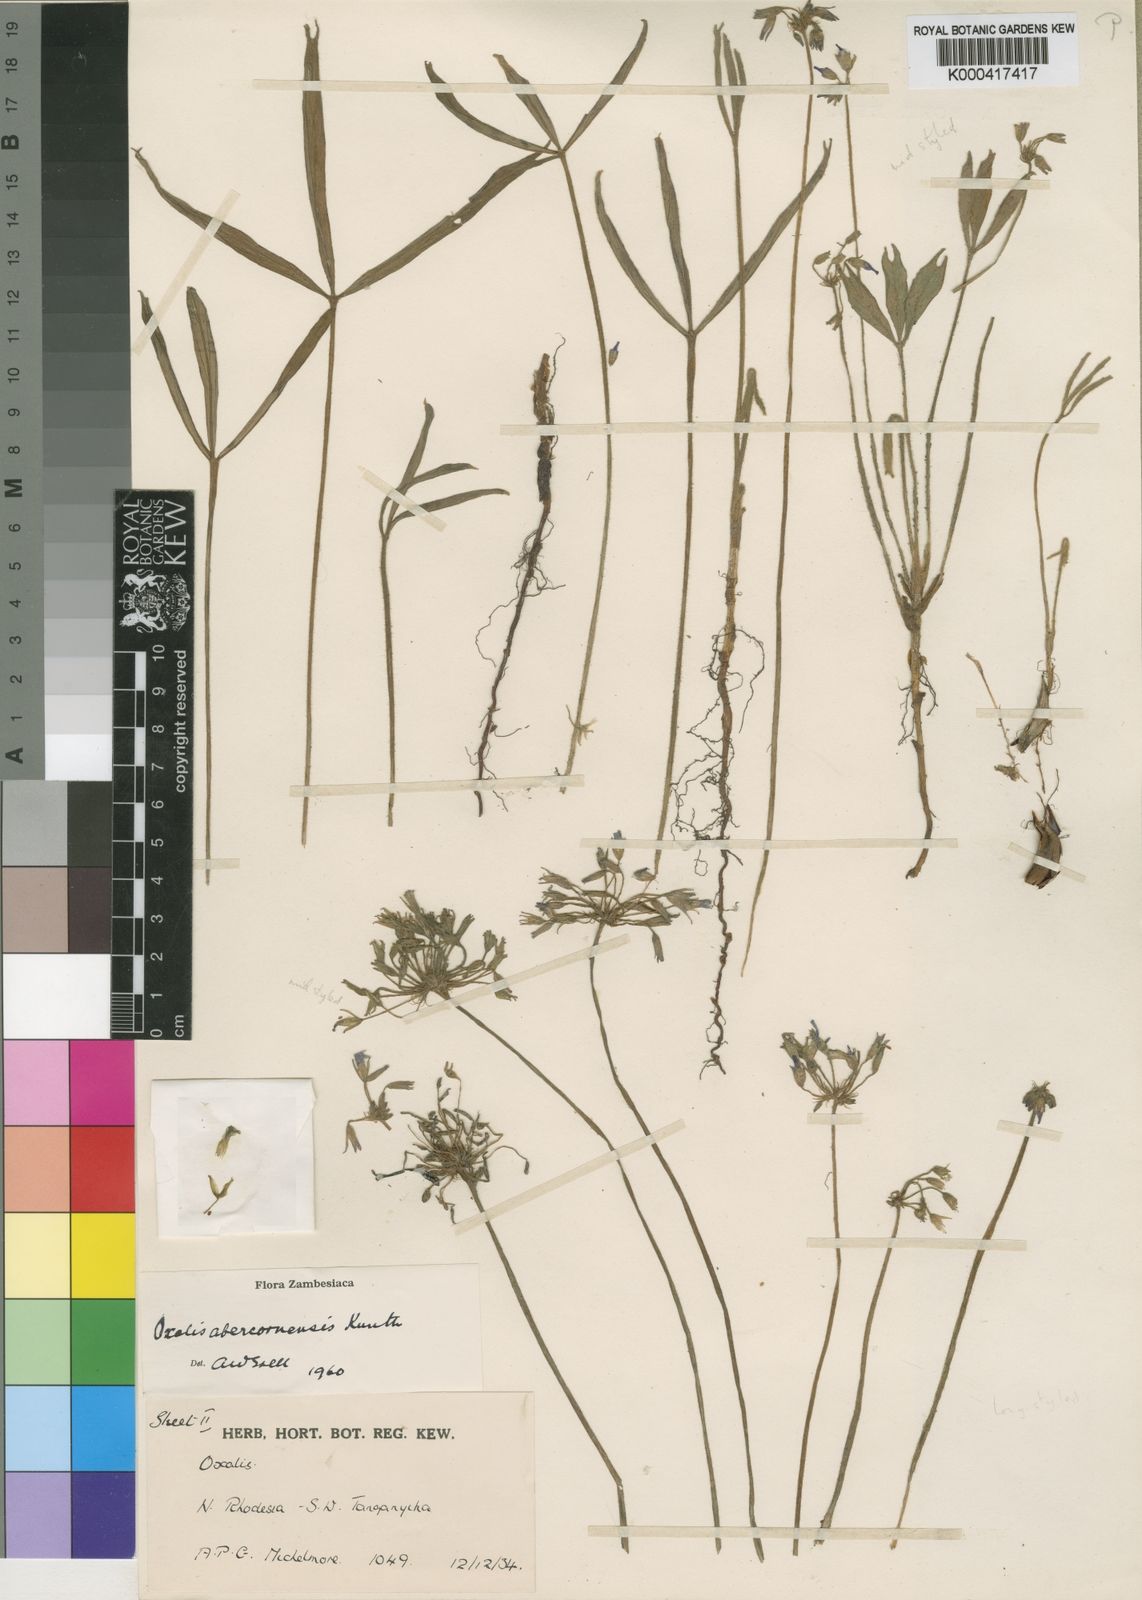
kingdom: Plantae
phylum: Tracheophyta
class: Magnoliopsida
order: Oxalidales
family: Oxalidaceae
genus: Oxalis
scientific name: Oxalis abercornensis
